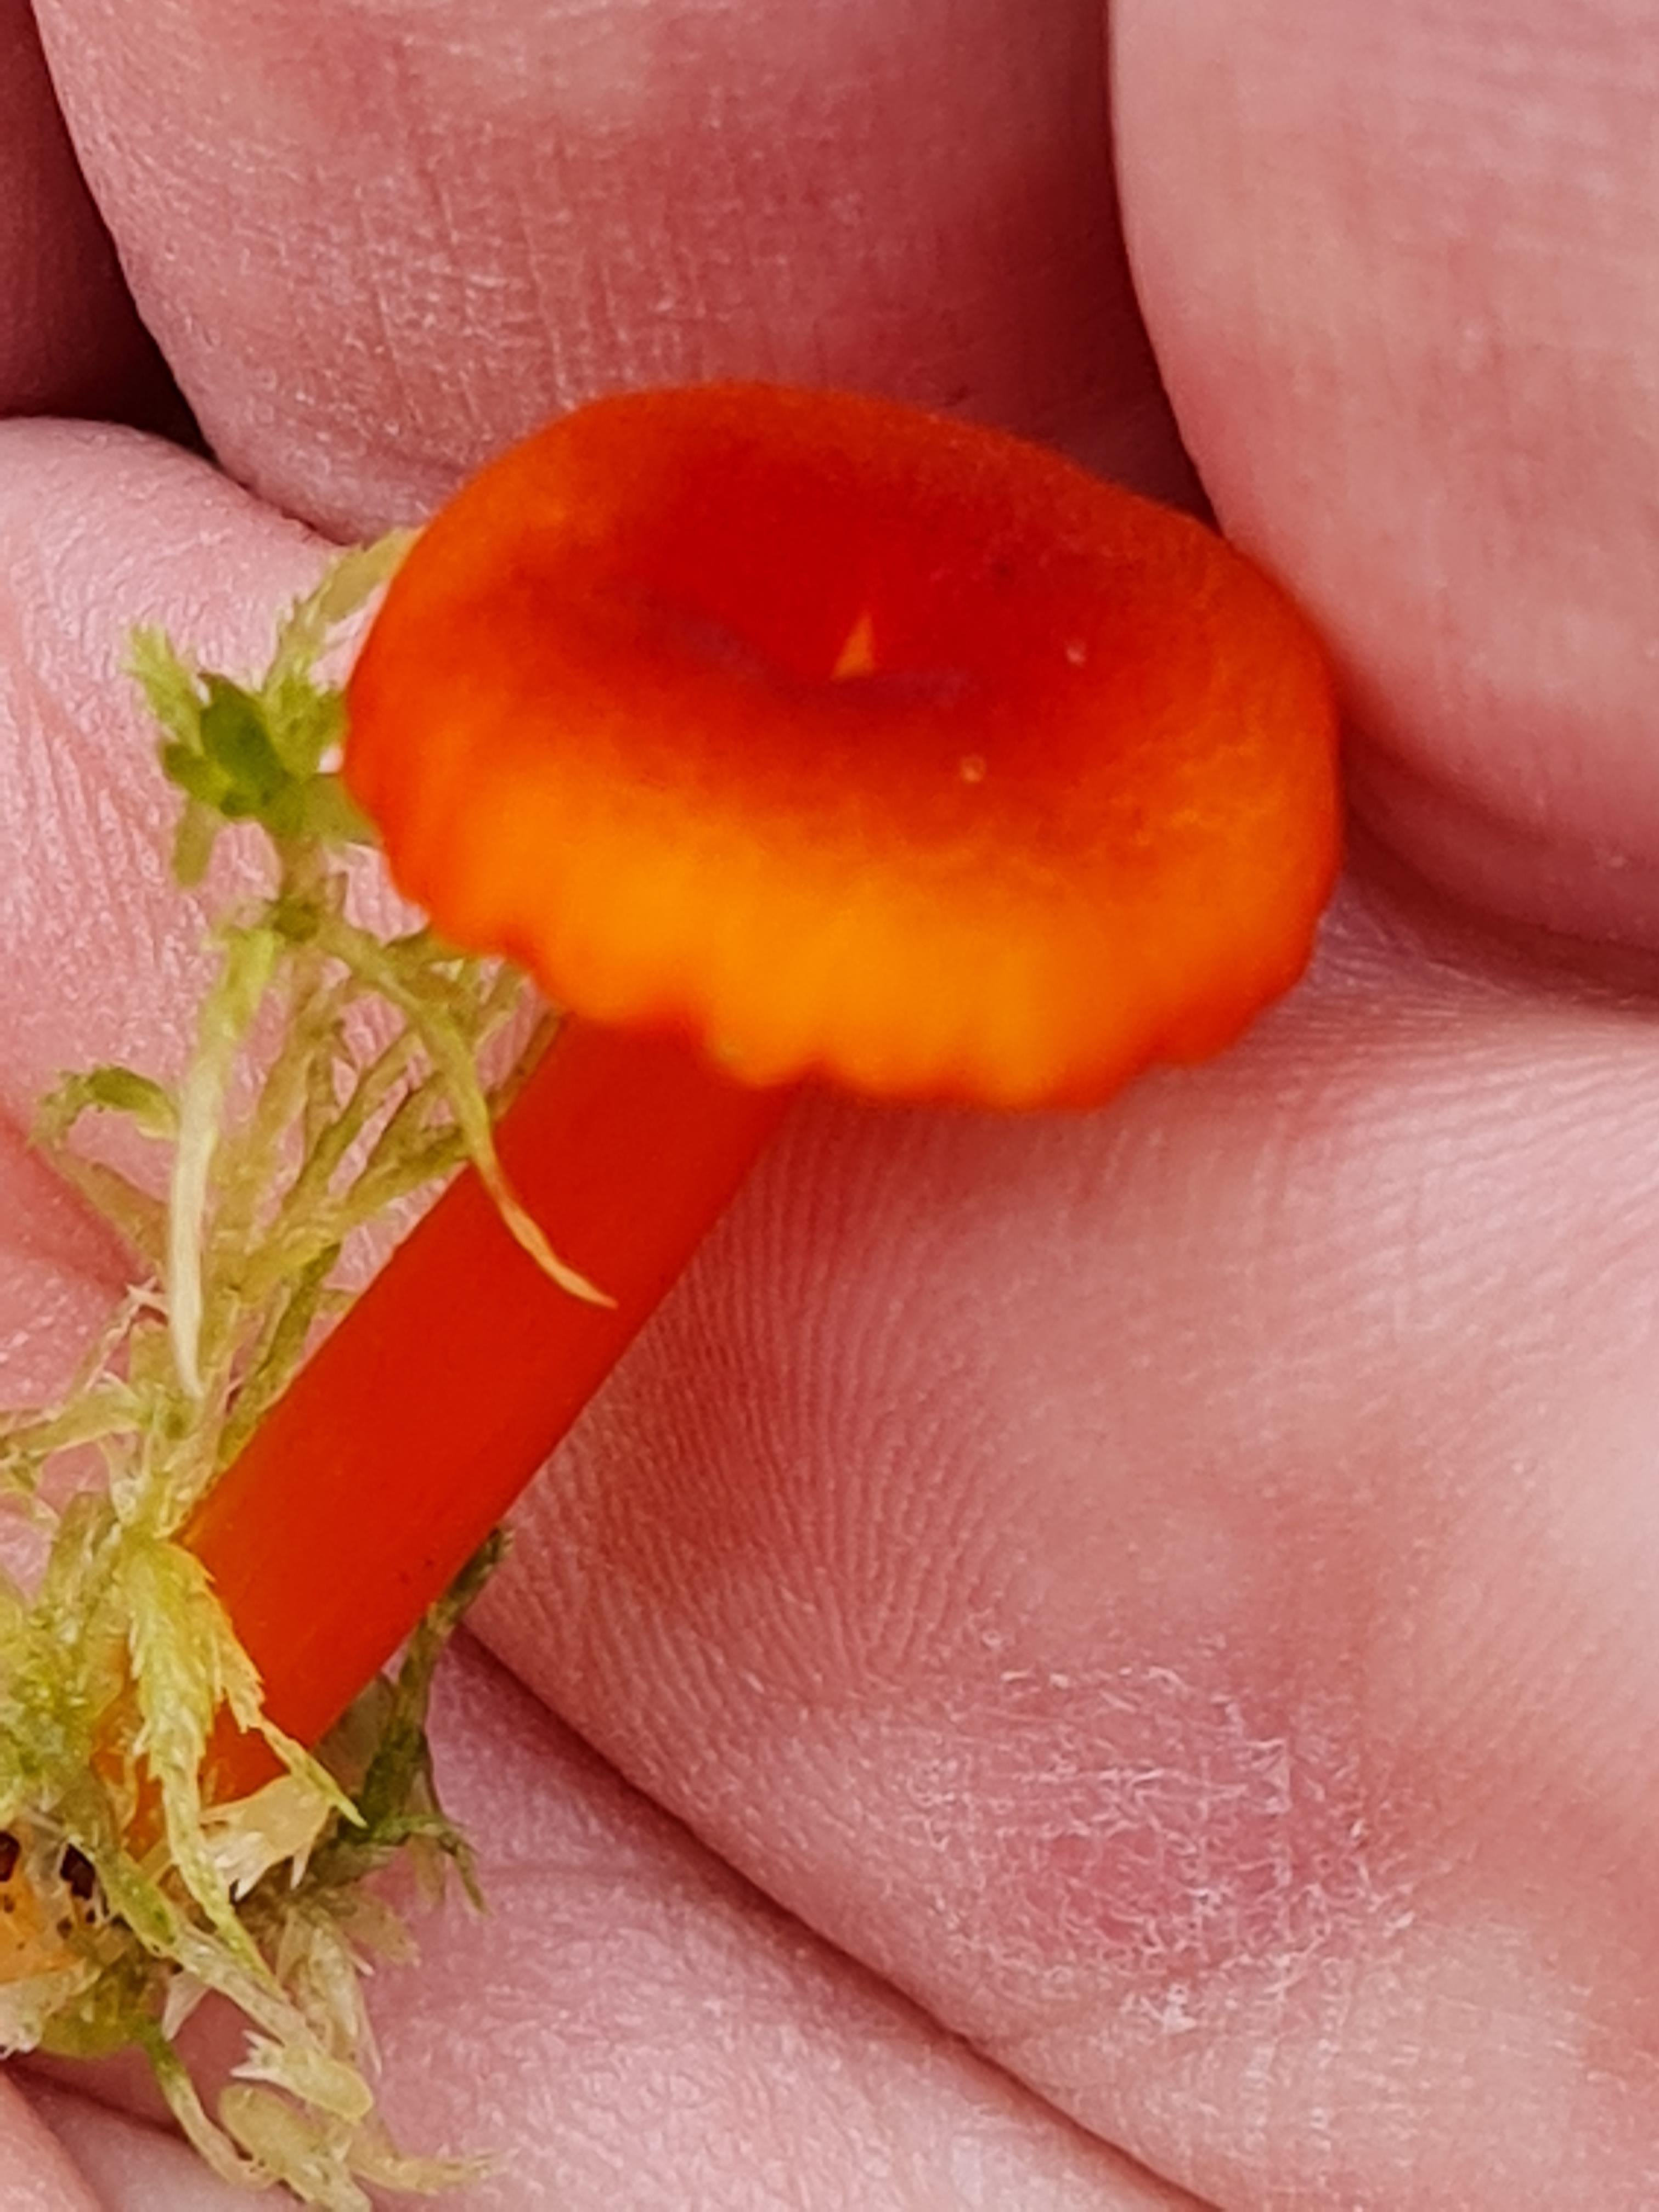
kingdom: Fungi
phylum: Basidiomycota
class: Agaricomycetes
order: Agaricales
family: Hygrophoraceae
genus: Hygrocybe
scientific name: Hygrocybe coccineocrenata
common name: tørvemos-vokshat
